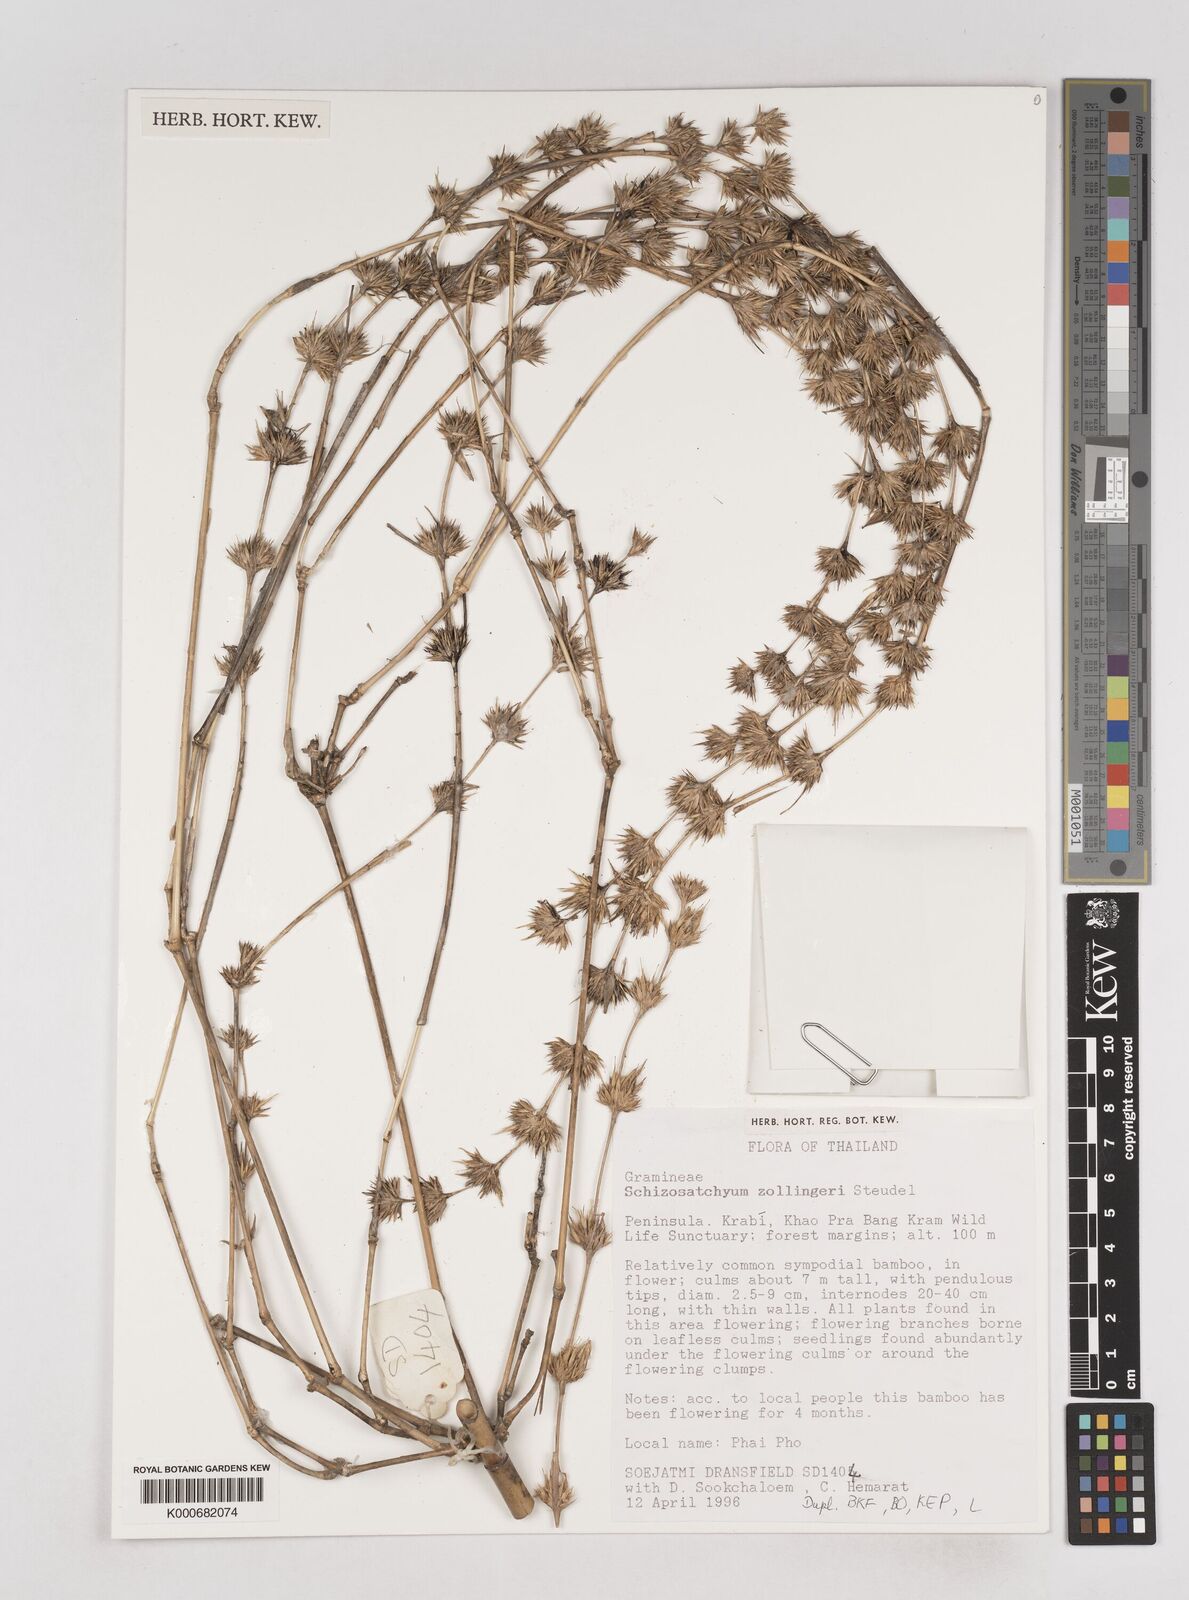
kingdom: Plantae
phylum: Tracheophyta
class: Liliopsida
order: Poales
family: Poaceae
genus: Schizostachyum
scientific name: Schizostachyum zollingeri
